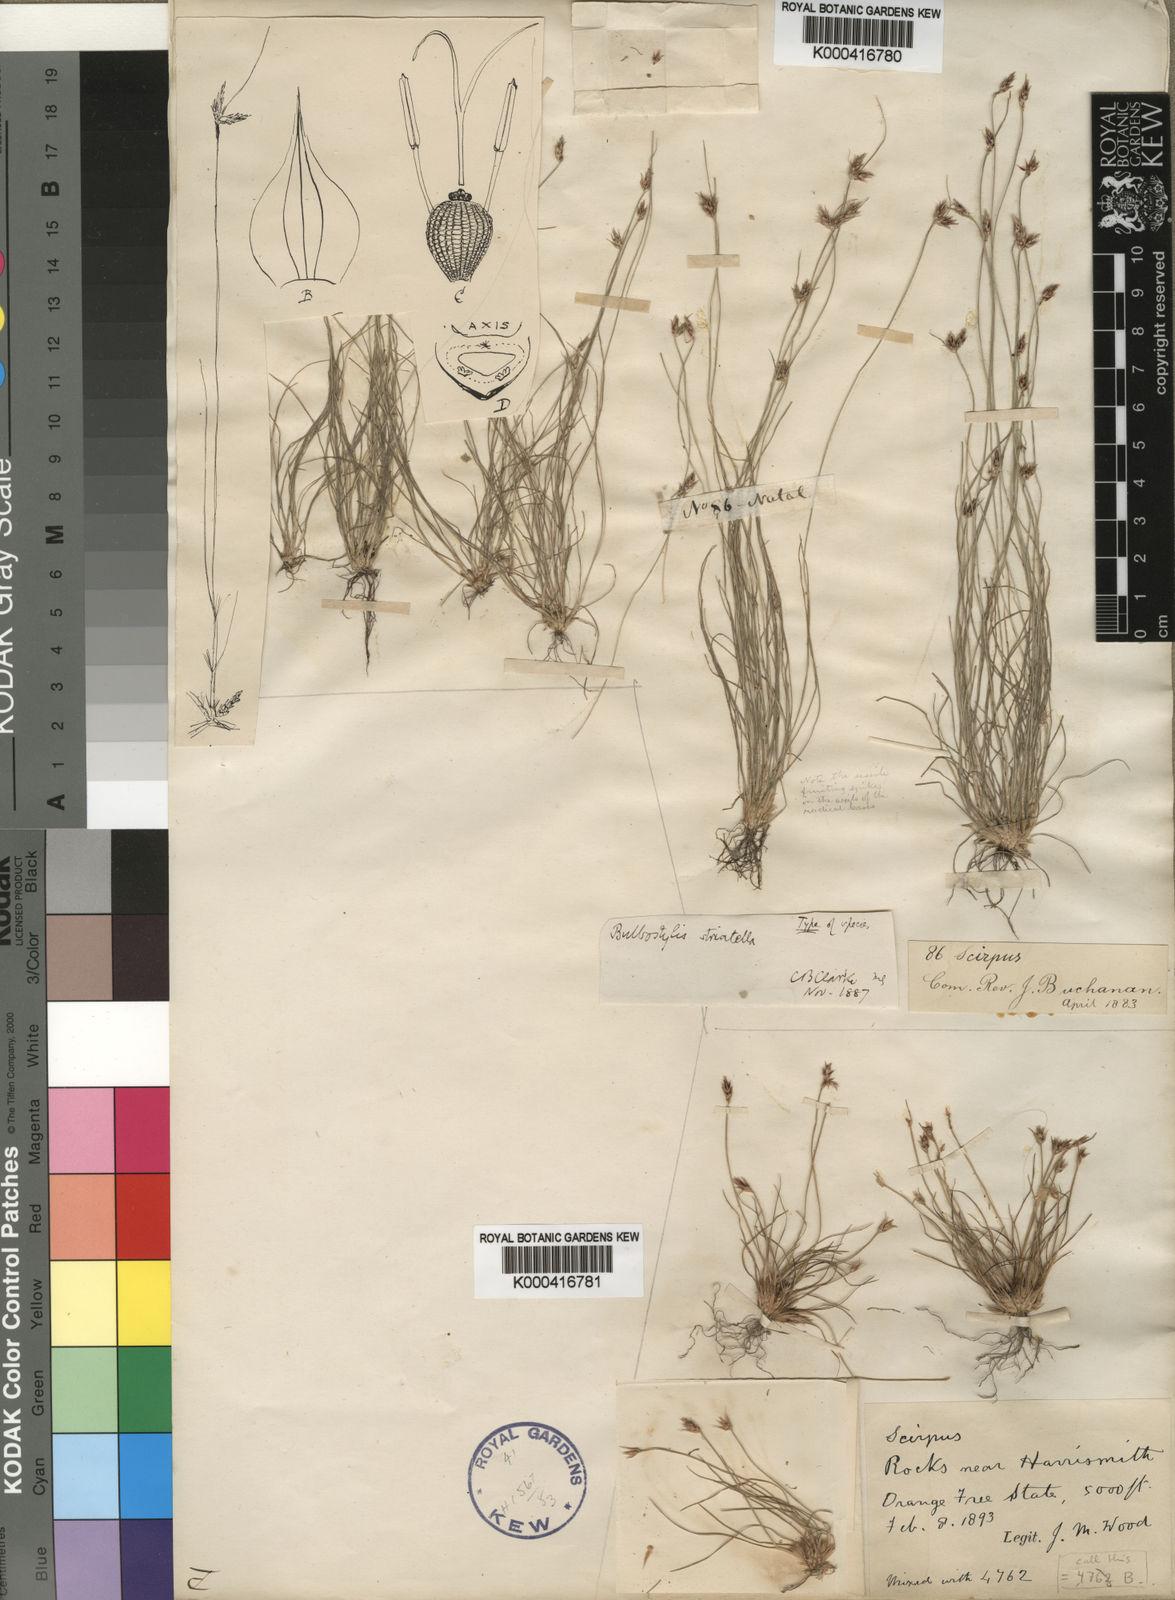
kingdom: Plantae
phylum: Tracheophyta
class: Liliopsida
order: Poales
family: Cyperaceae
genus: Bulbostylis
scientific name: Bulbostylis humilis
